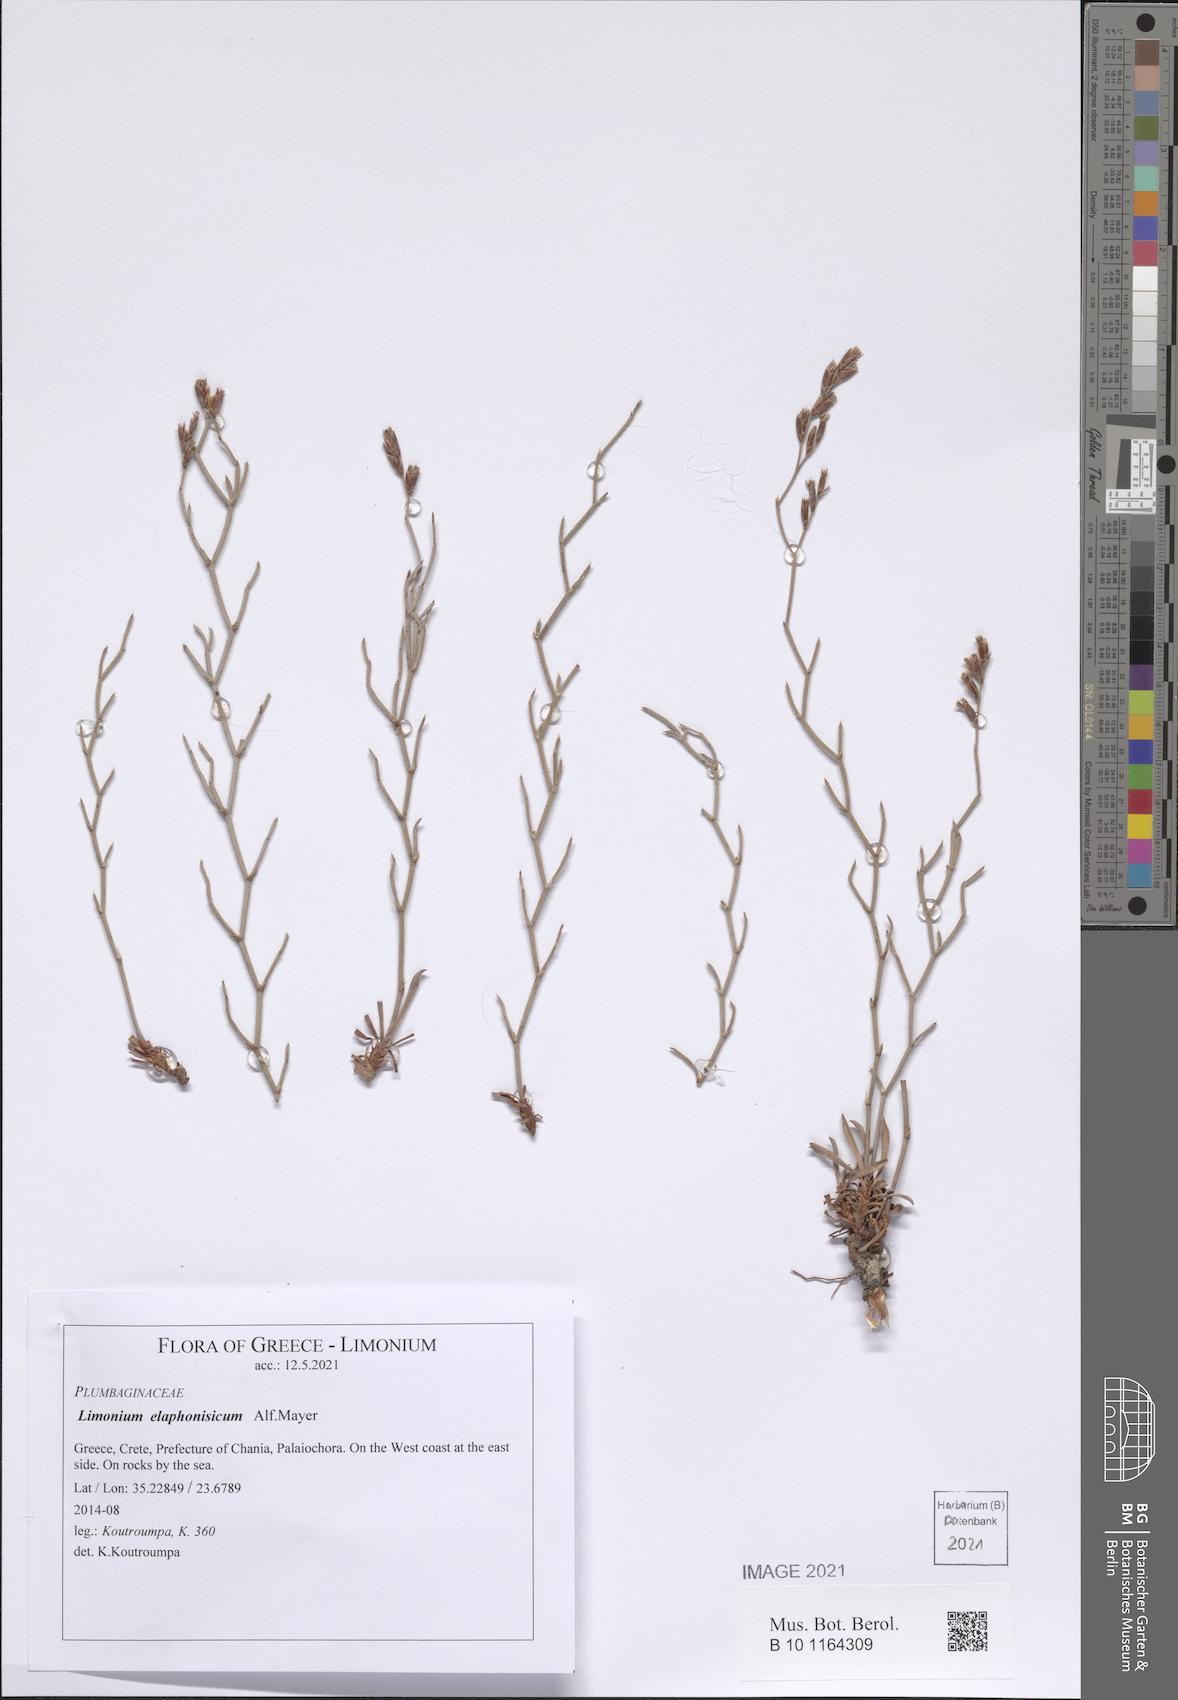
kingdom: Plantae
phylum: Tracheophyta
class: Magnoliopsida
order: Caryophyllales
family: Plumbaginaceae
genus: Limonium
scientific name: Limonium elaphonisicum
